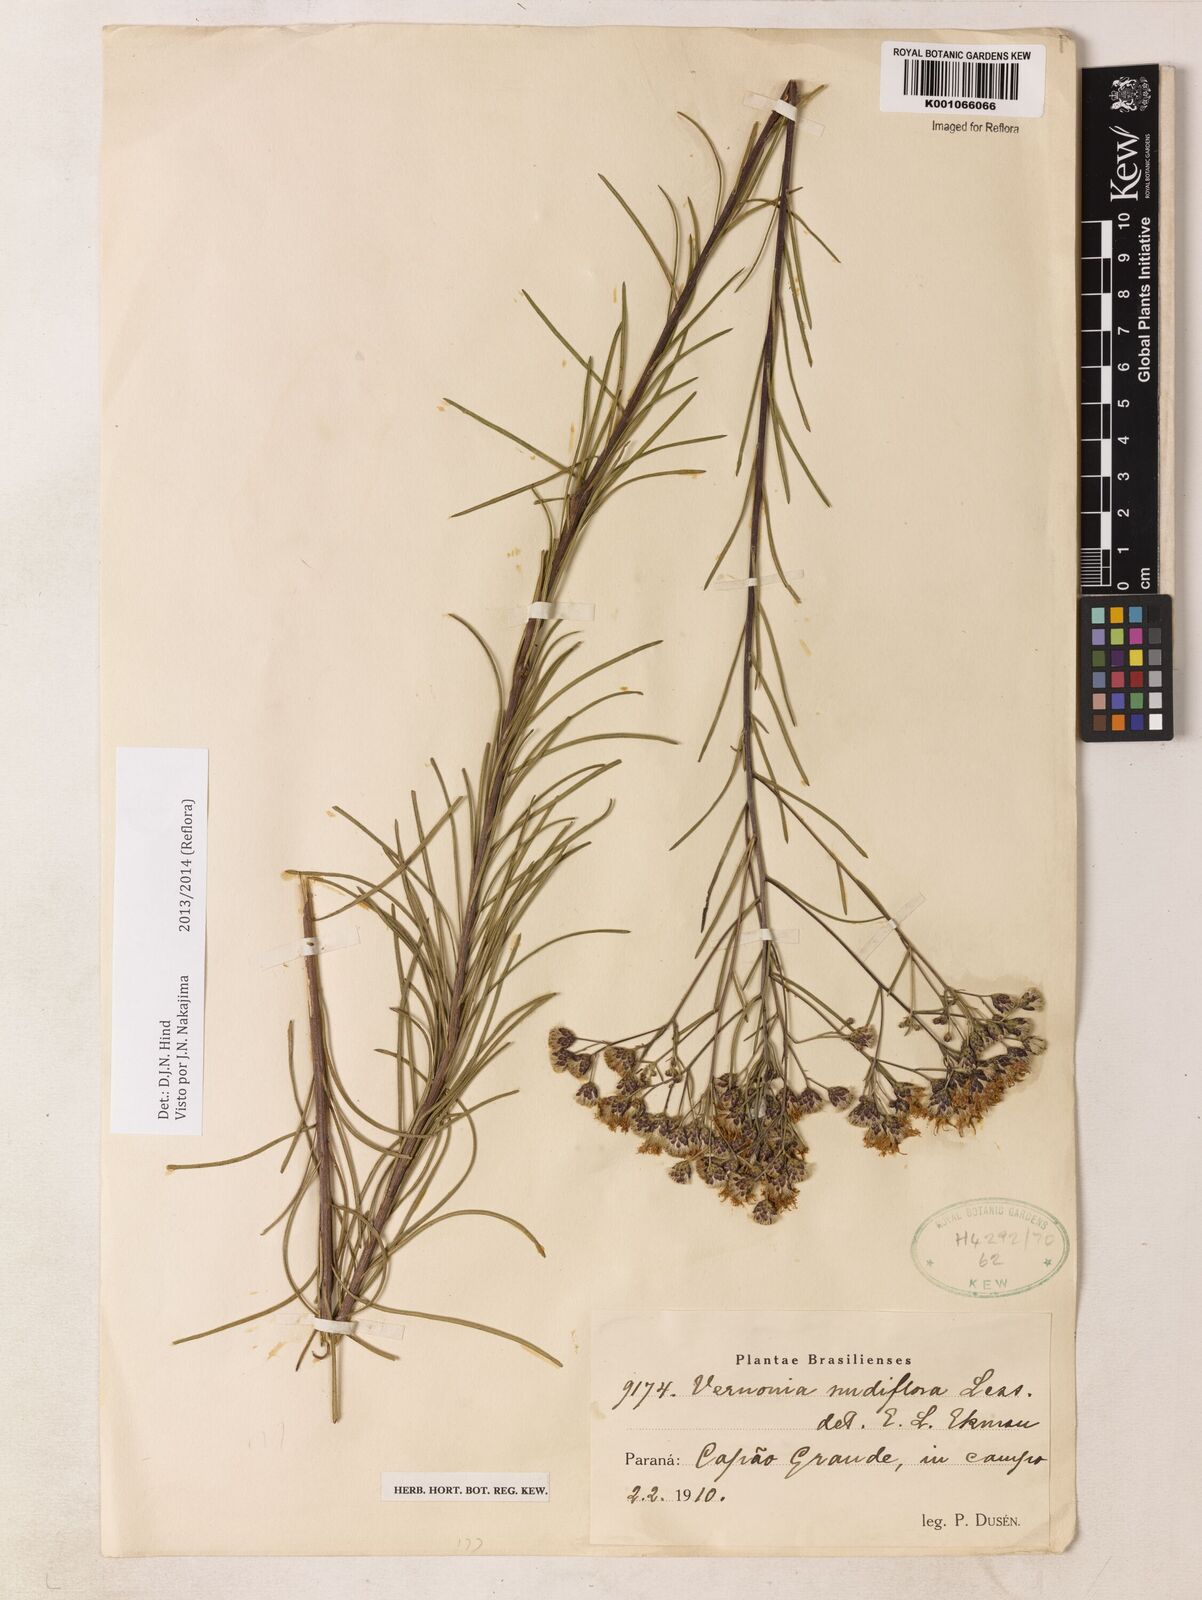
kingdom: Plantae
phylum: Tracheophyta
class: Magnoliopsida
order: Asterales
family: Asteraceae
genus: Vernonanthura
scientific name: Vernonanthura nudiflora
